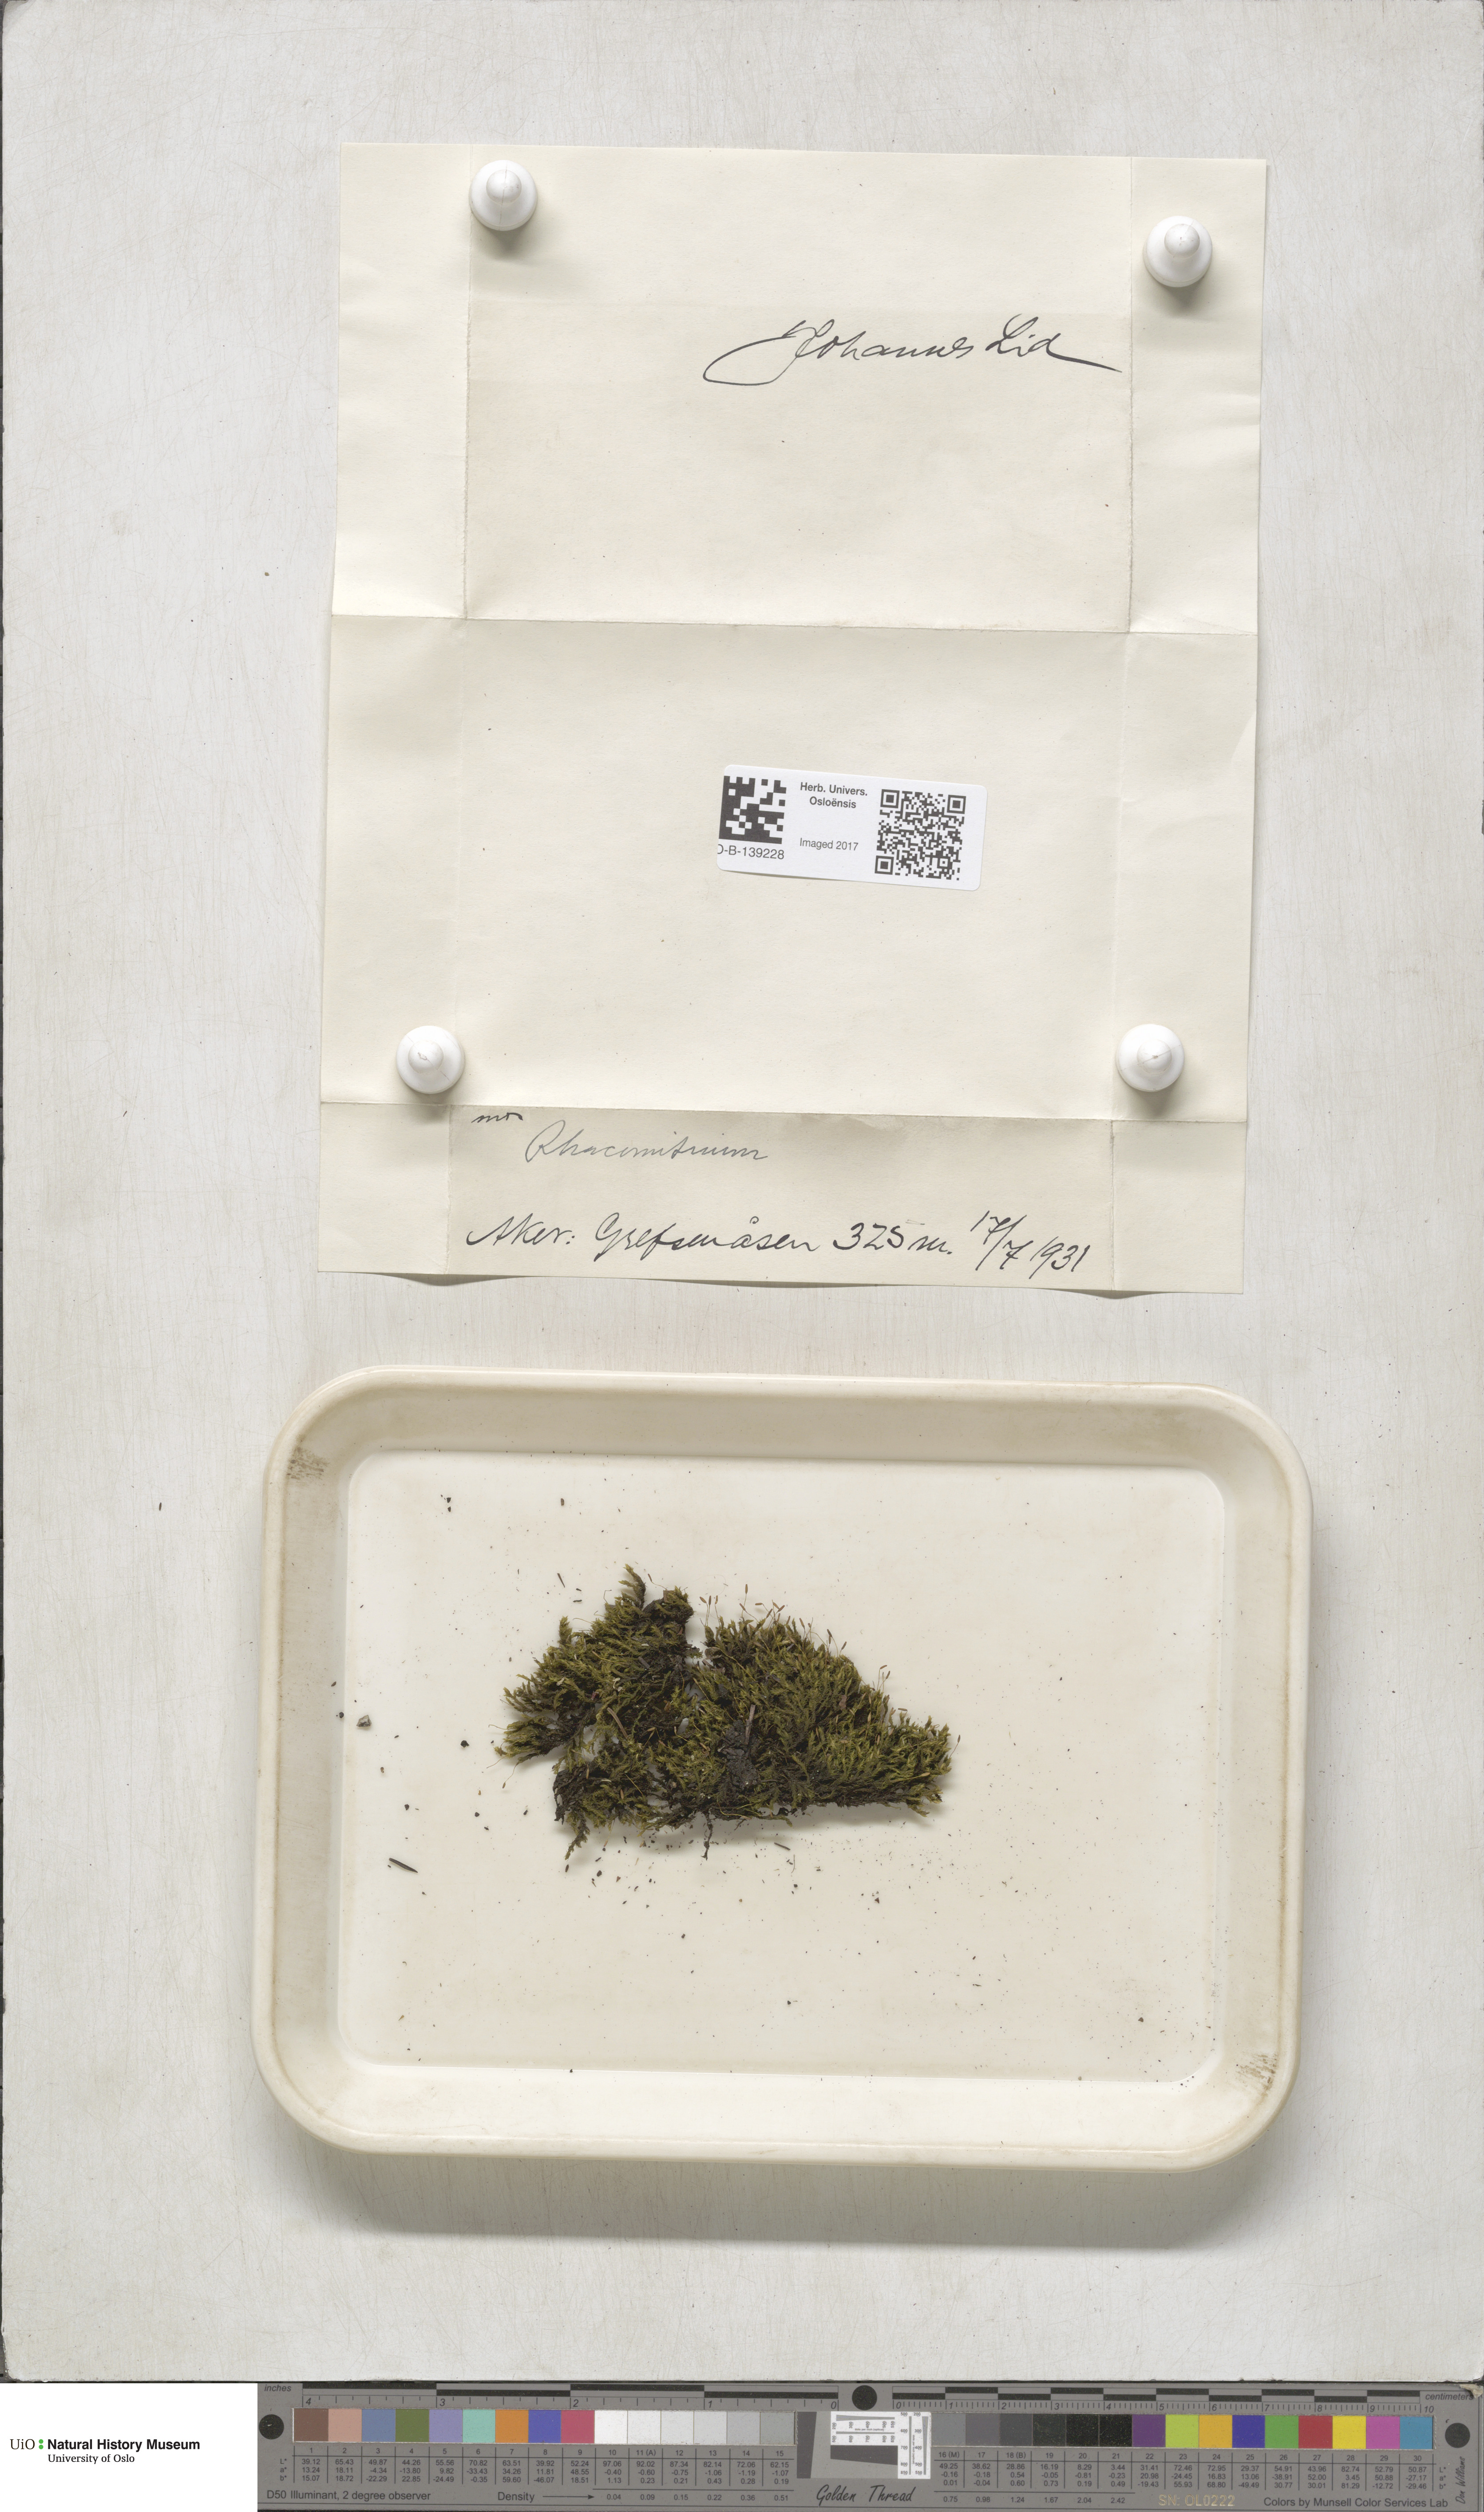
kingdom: Plantae
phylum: Bryophyta
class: Bryopsida
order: Grimmiales
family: Grimmiaceae
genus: Racomitrium
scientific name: Racomitrium
